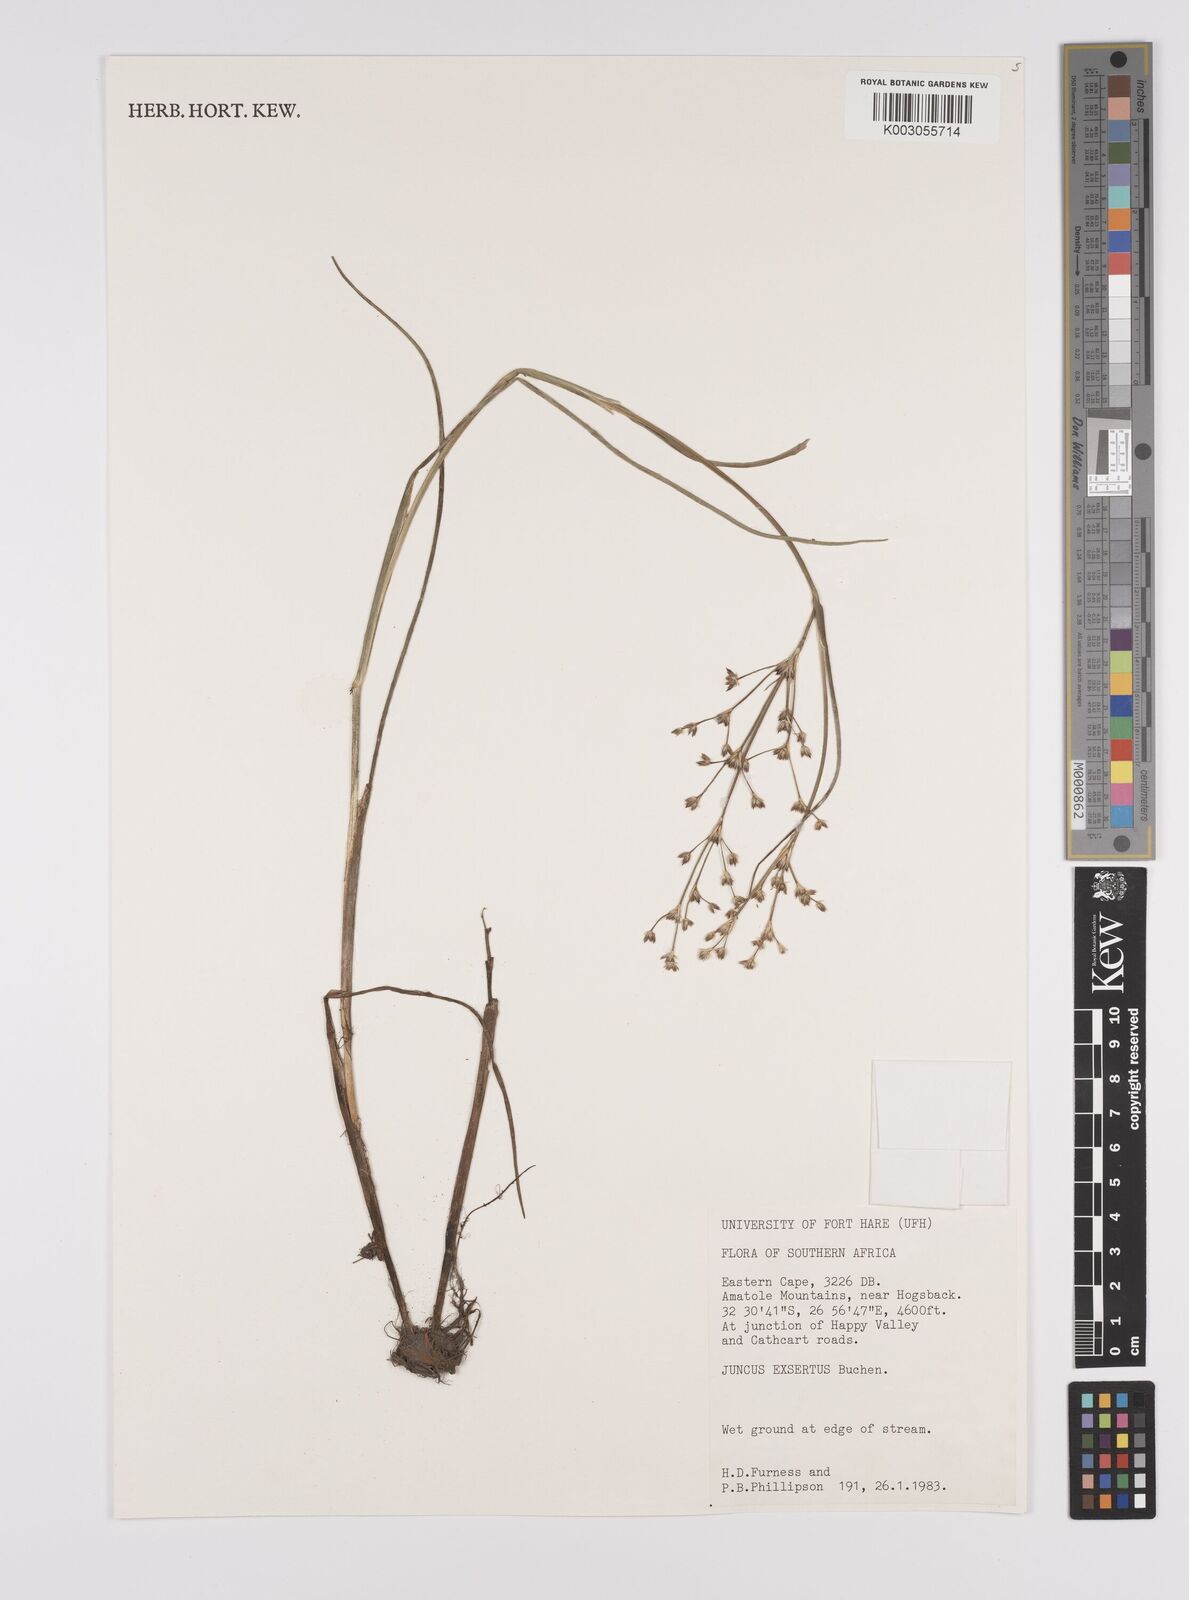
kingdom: Plantae
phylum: Tracheophyta
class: Liliopsida
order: Poales
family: Juncaceae
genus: Juncus
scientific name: Juncus oxycarpus
